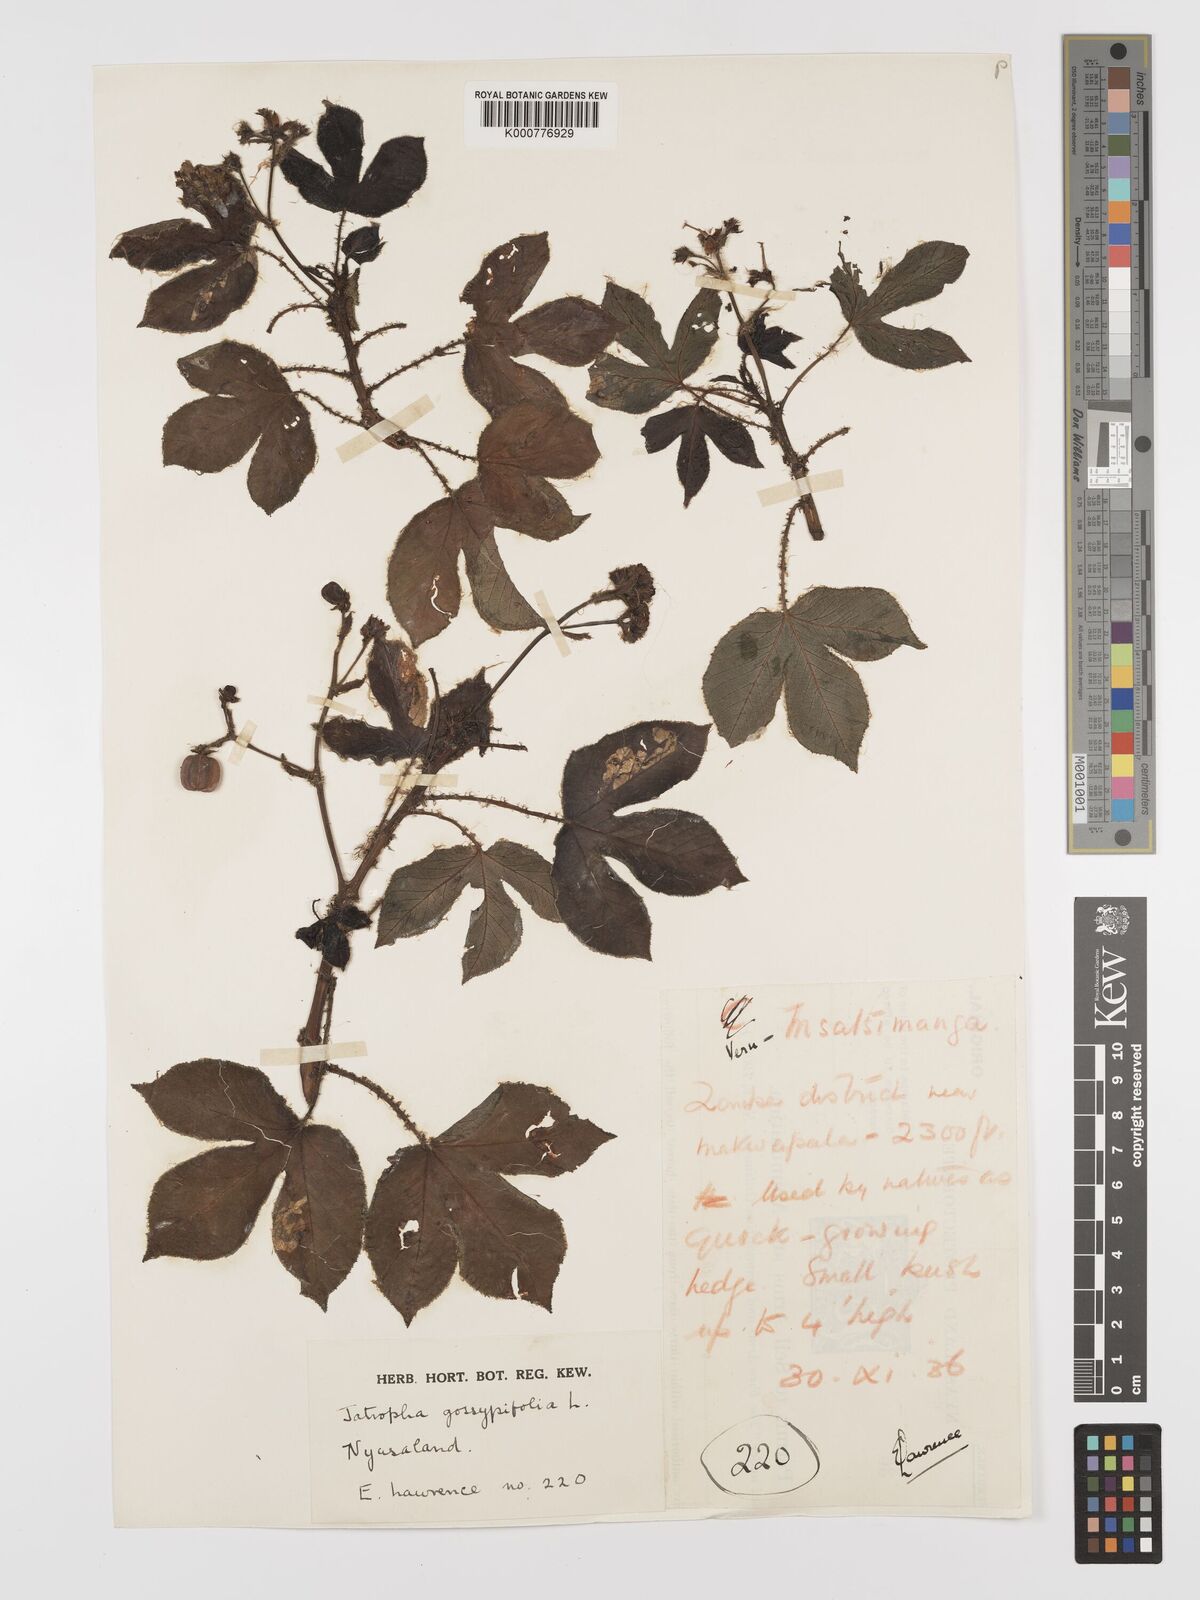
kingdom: Plantae
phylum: Tracheophyta
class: Magnoliopsida
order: Malpighiales
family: Euphorbiaceae
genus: Jatropha
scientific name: Jatropha gossypiifolia
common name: Bellyache bush
